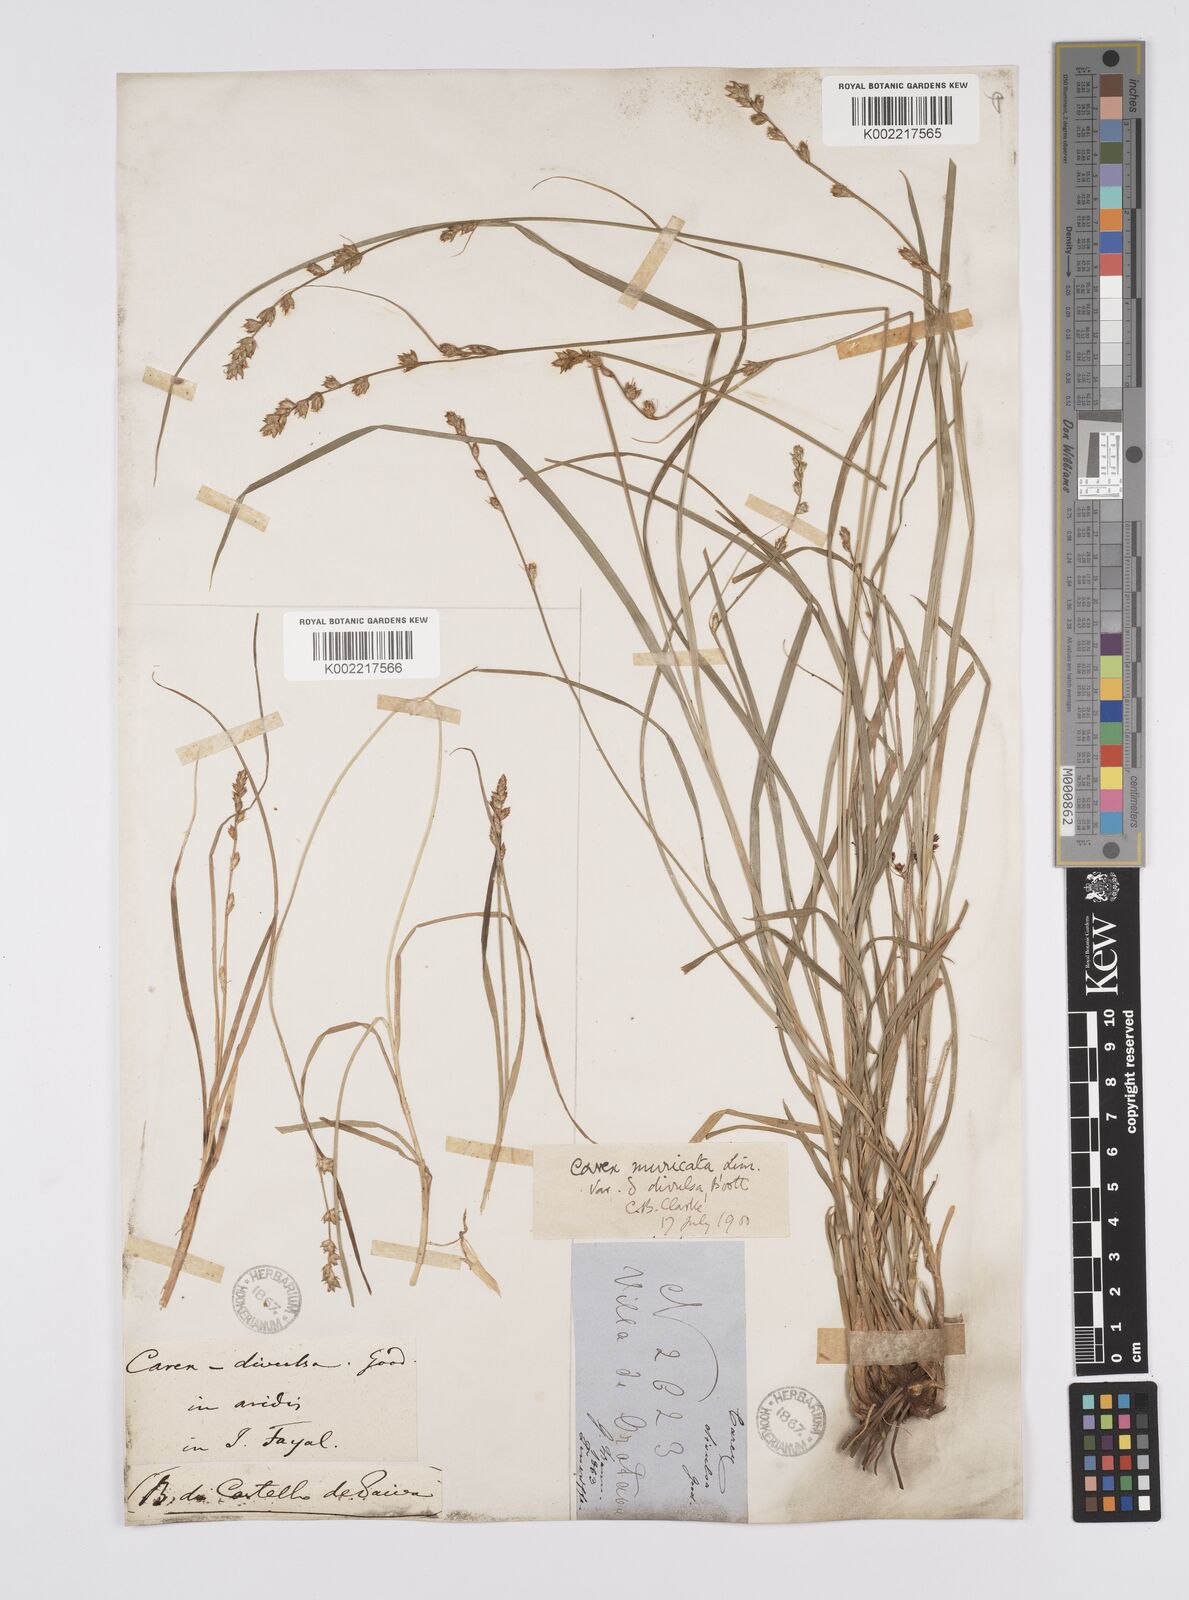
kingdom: Plantae
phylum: Tracheophyta
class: Liliopsida
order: Poales
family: Cyperaceae
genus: Carex
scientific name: Carex divulsa
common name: Grassland sedge
